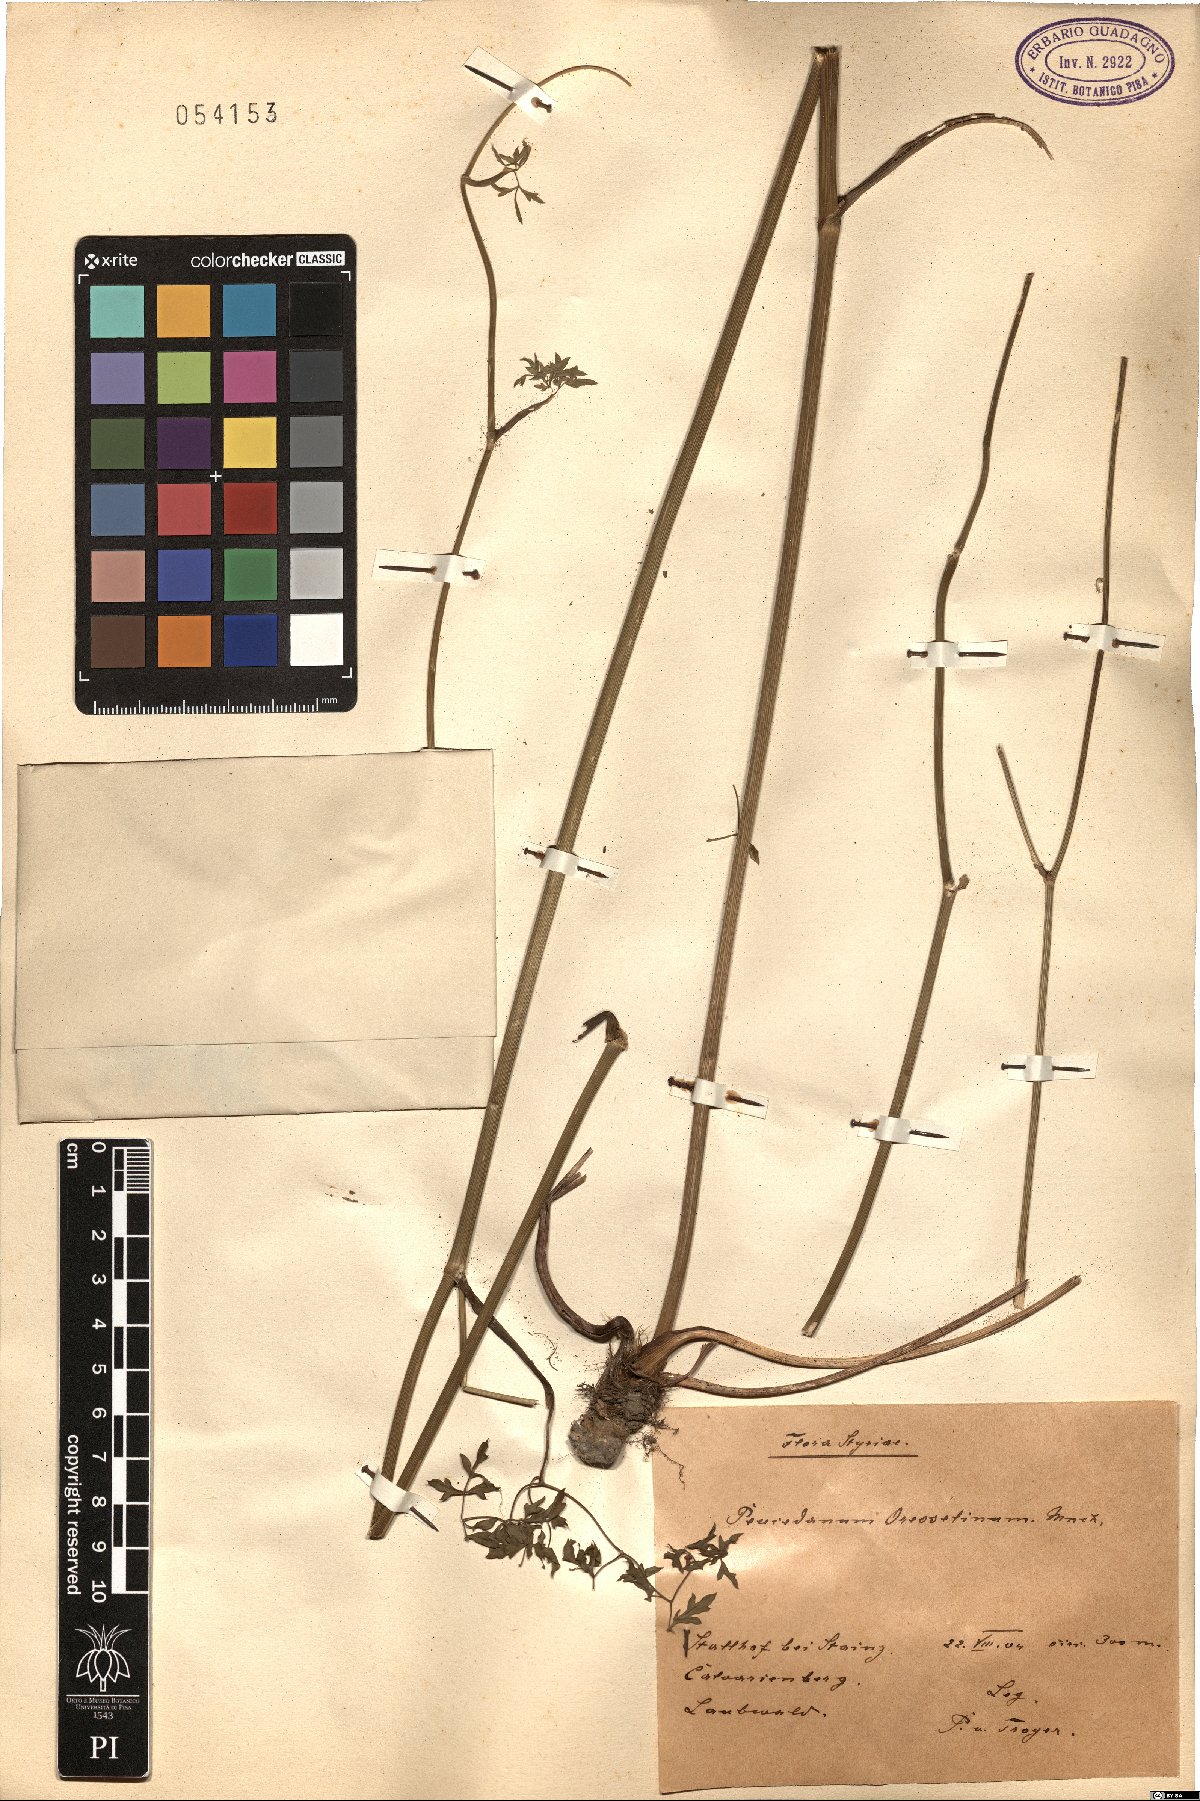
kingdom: Plantae
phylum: Tracheophyta
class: Magnoliopsida
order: Apiales
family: Apiaceae
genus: Oreoselinum
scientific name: Oreoselinum nigrum
